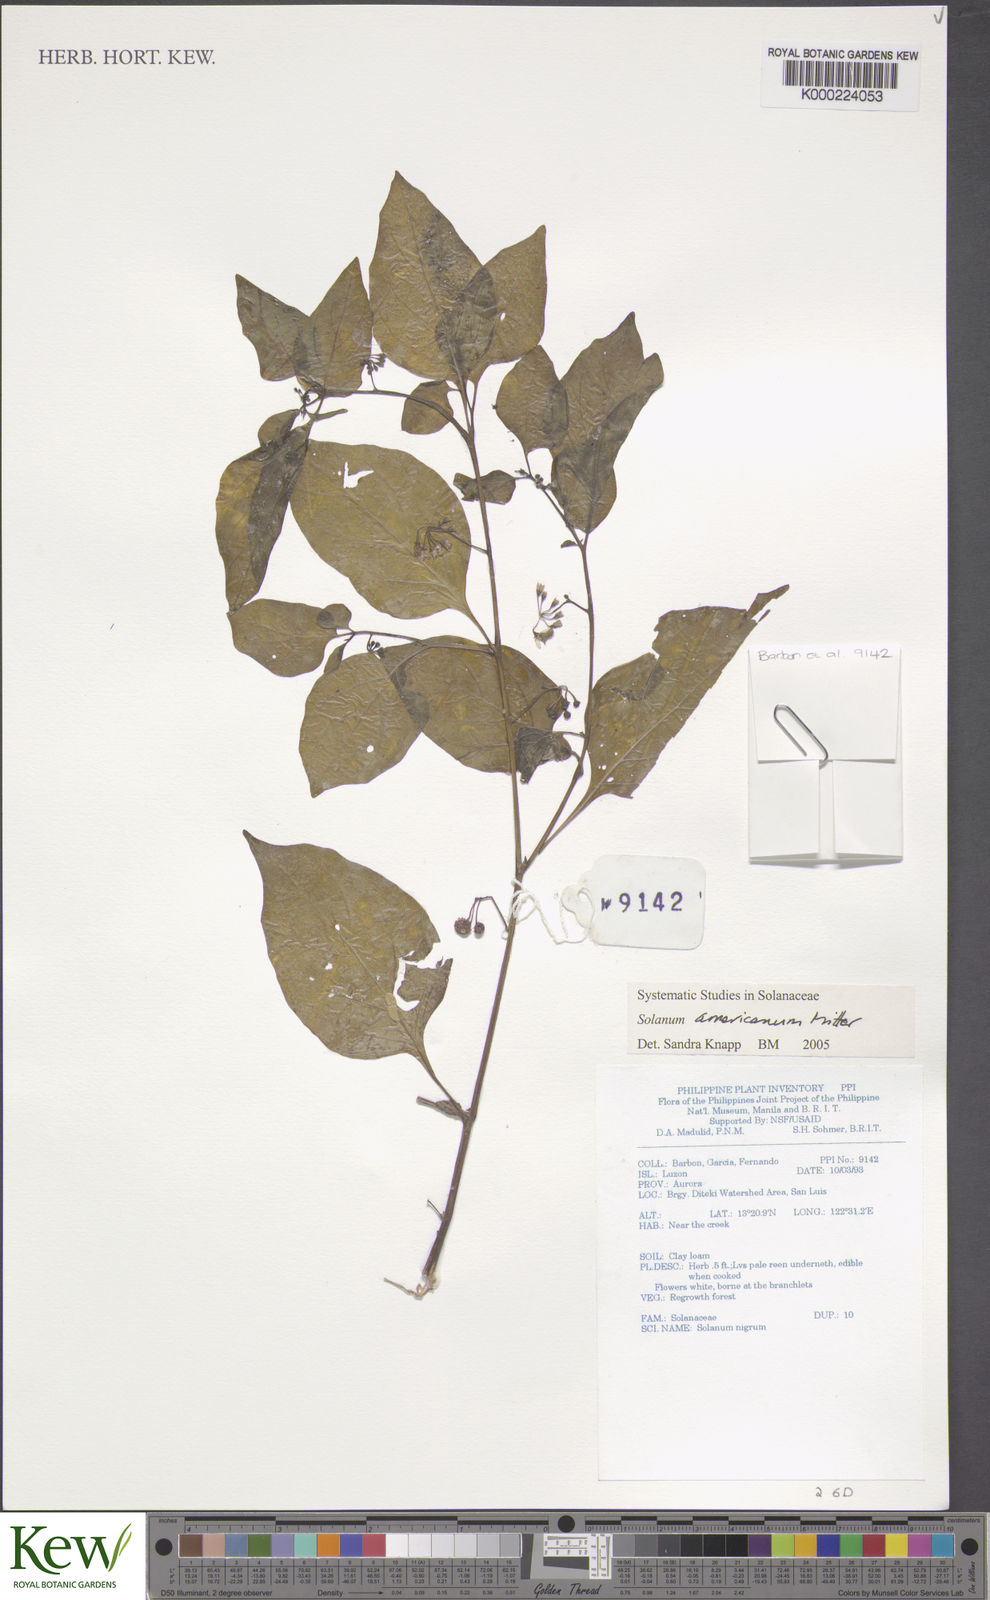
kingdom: Plantae
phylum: Tracheophyta
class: Magnoliopsida
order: Solanales
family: Solanaceae
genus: Solanum
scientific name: Solanum americanum
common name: American black nightshade
